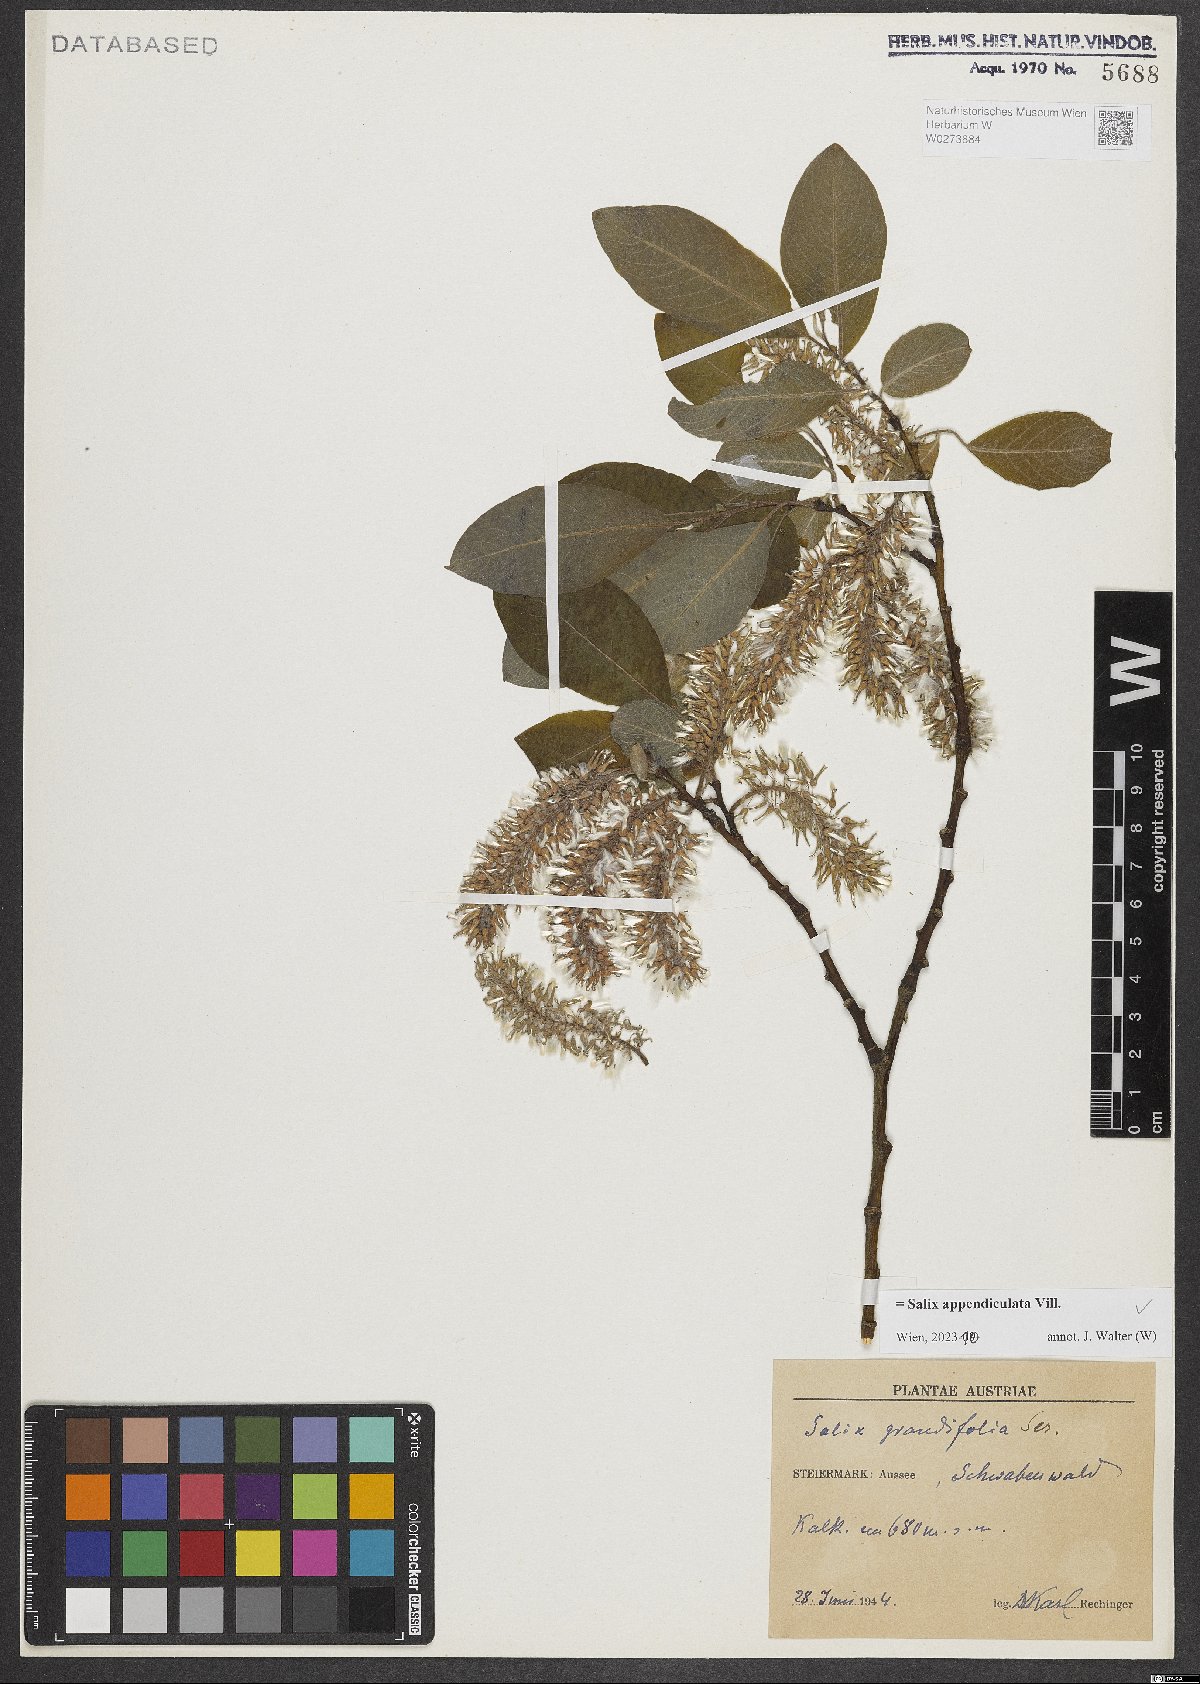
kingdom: Plantae
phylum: Tracheophyta
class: Magnoliopsida
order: Malpighiales
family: Salicaceae
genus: Salix
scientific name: Salix appendiculata
